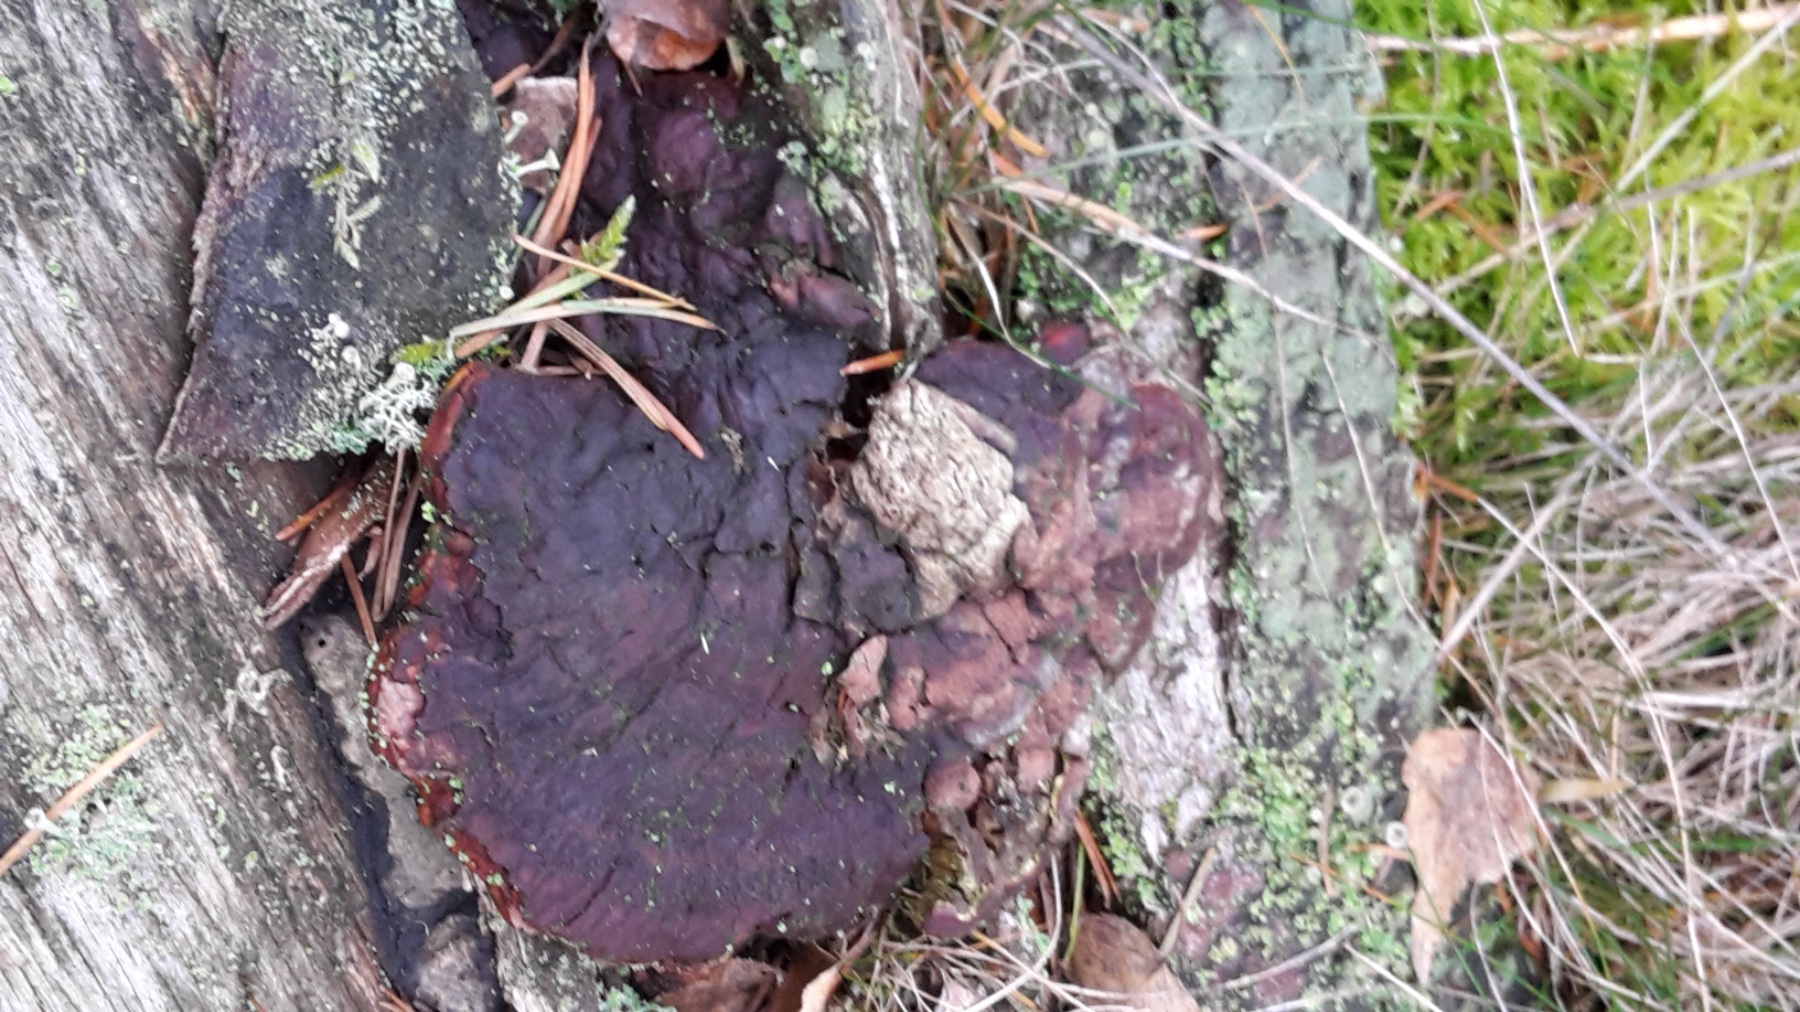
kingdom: Fungi
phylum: Basidiomycota
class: Agaricomycetes
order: Polyporales
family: Polyporaceae
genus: Ganoderma
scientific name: Ganoderma lucidum
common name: skinnende lakporesvamp
